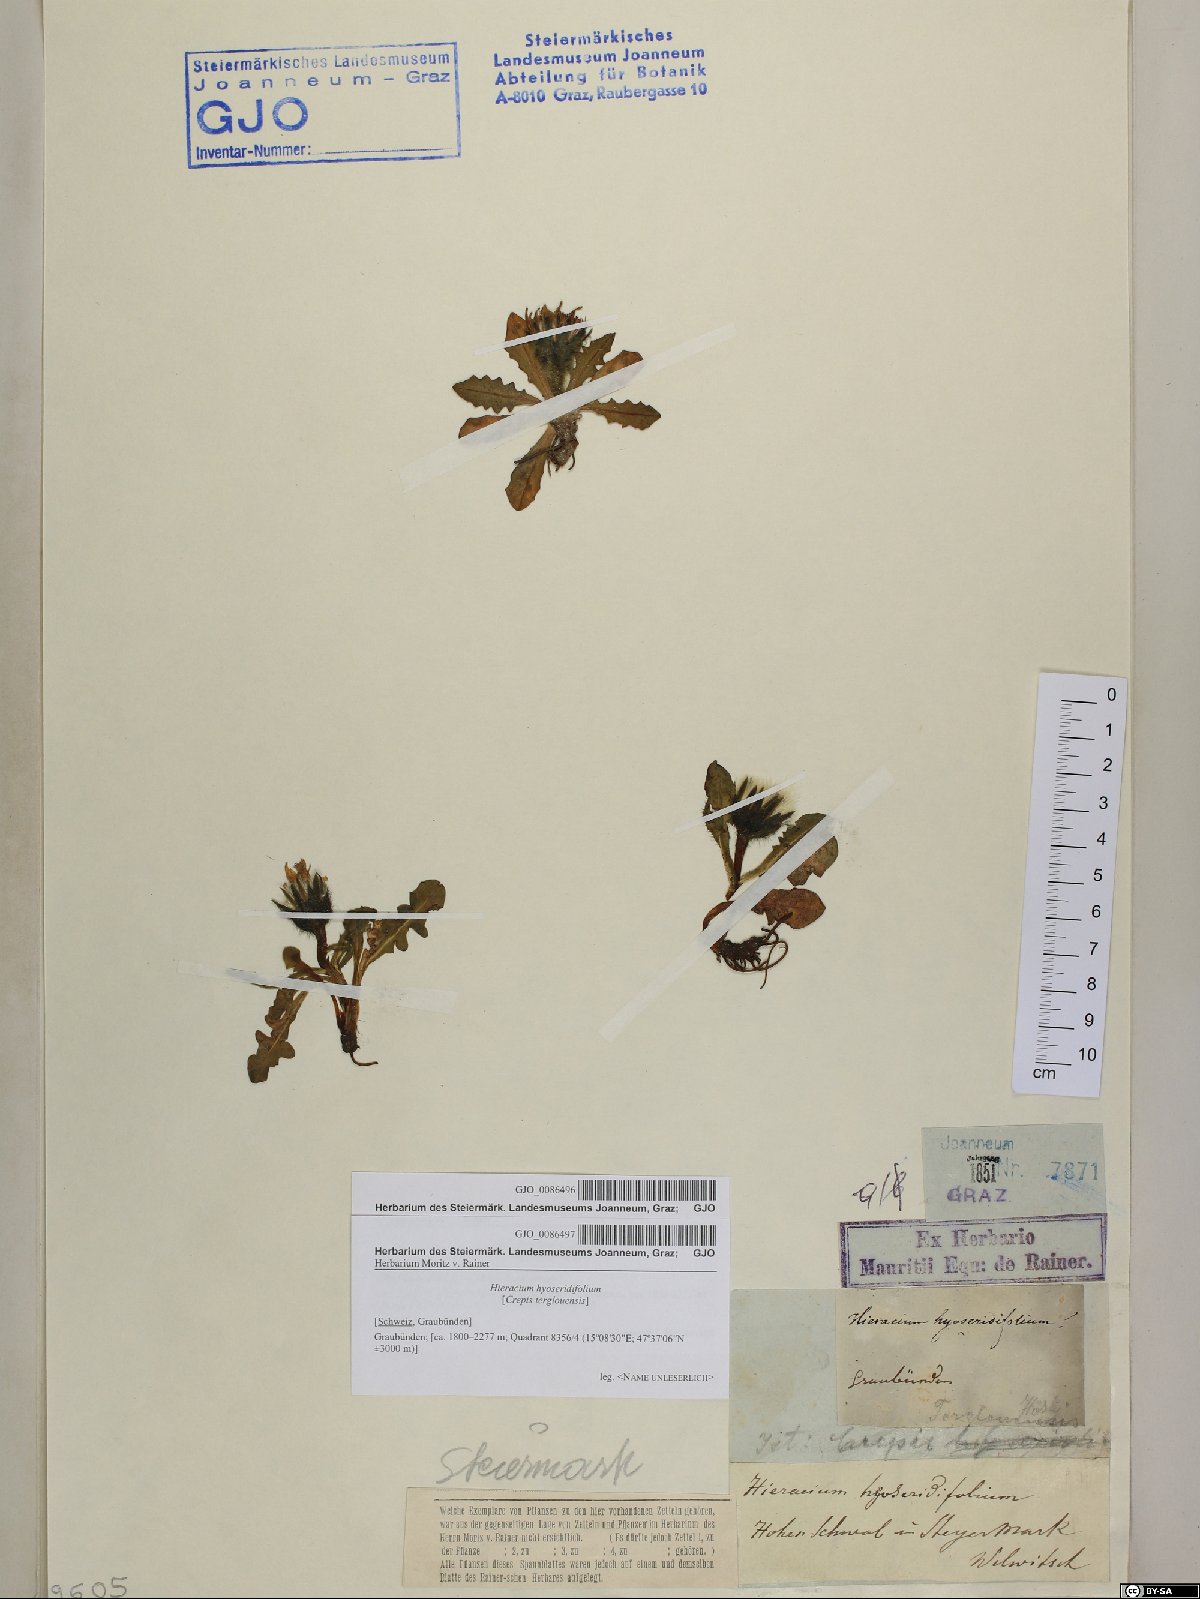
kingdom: Plantae
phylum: Tracheophyta
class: Magnoliopsida
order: Asterales
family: Asteraceae
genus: Crepis
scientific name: Crepis terglouensis
